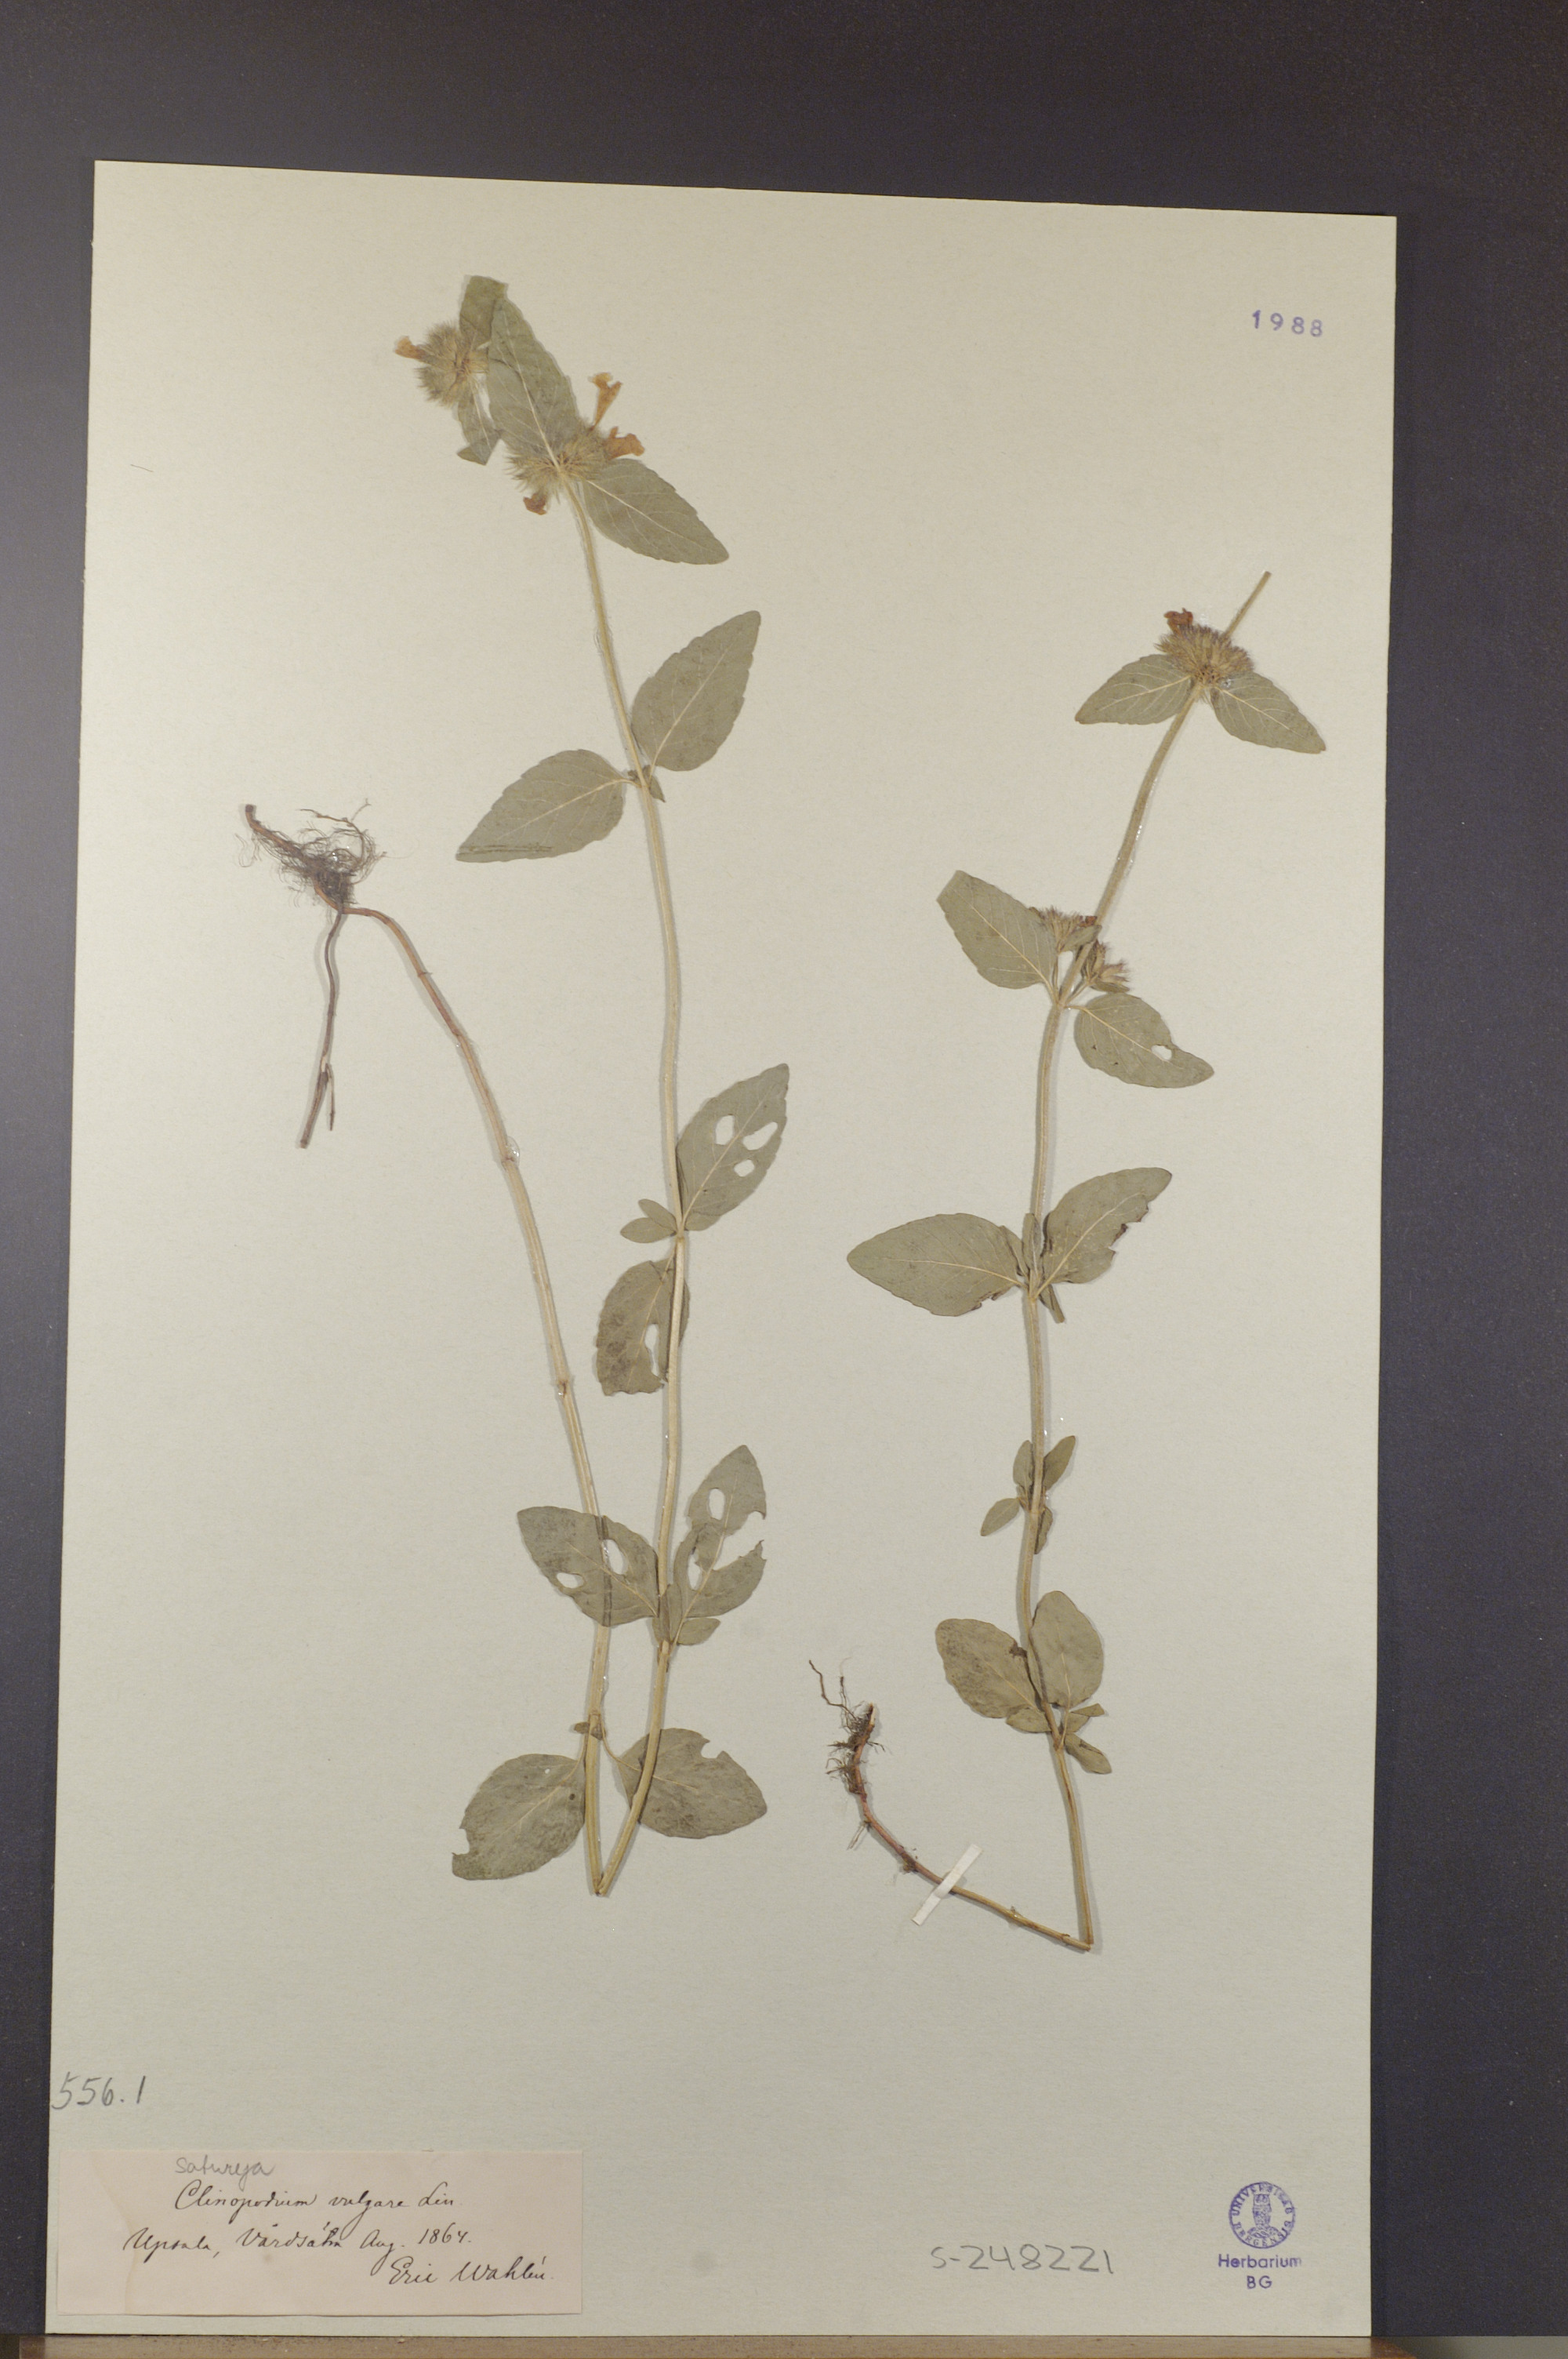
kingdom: Plantae
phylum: Tracheophyta
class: Magnoliopsida
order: Lamiales
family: Lamiaceae
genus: Clinopodium
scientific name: Clinopodium vulgare
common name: Wild basil
